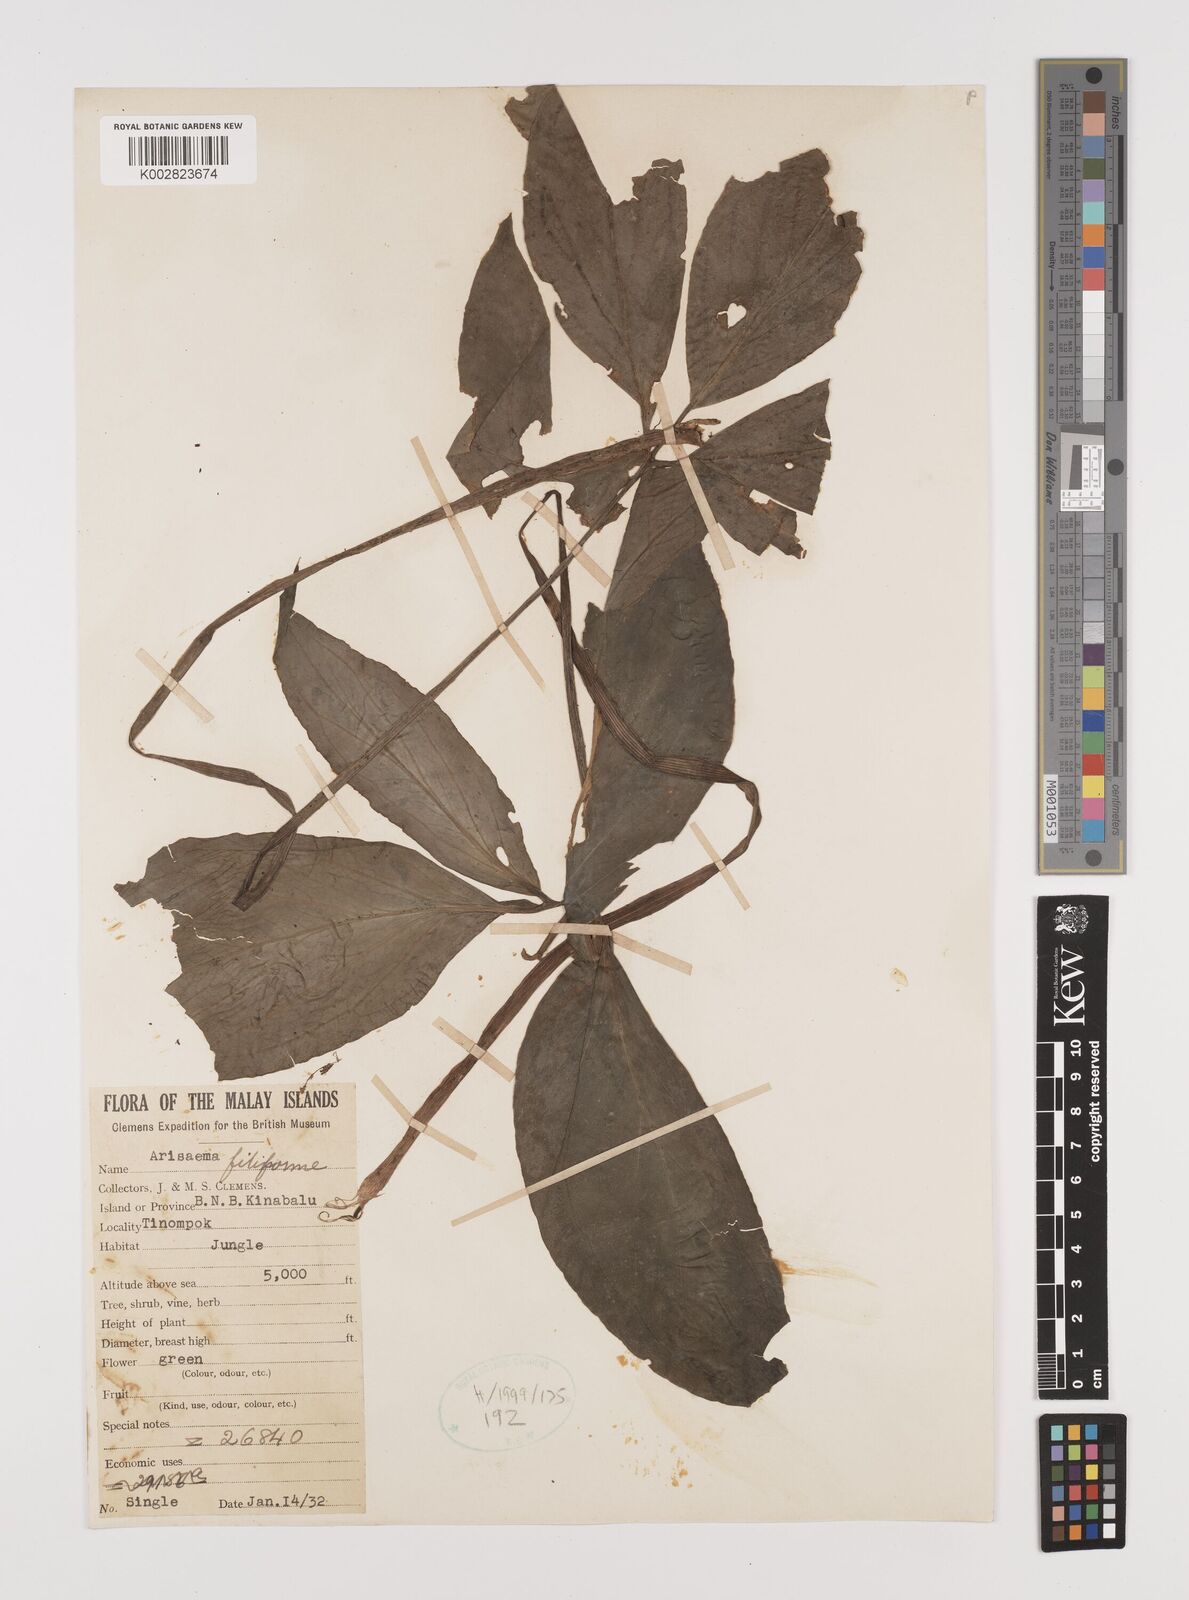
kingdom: Plantae
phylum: Tracheophyta
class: Liliopsida
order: Alismatales
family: Araceae
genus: Arisaema
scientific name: Arisaema filiforme
